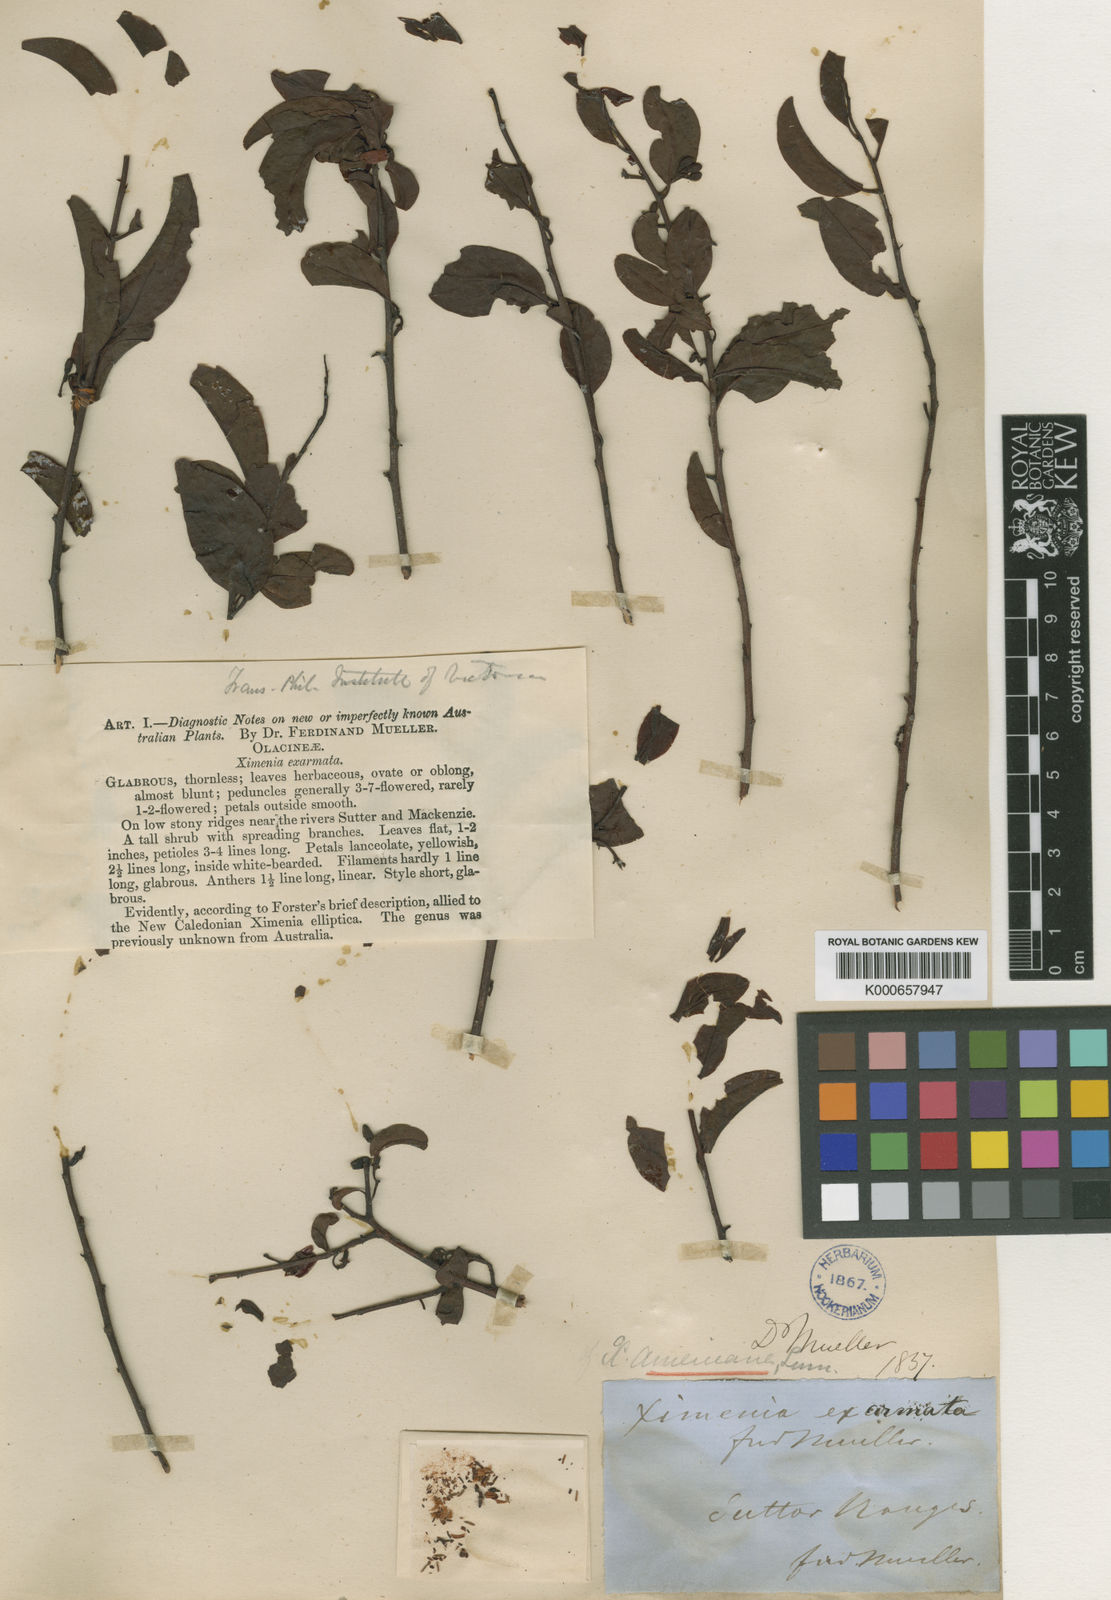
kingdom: Plantae
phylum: Tracheophyta
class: Magnoliopsida
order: Santalales
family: Ximeniaceae
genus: Ximenia
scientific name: Ximenia americana
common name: Tallowwood
